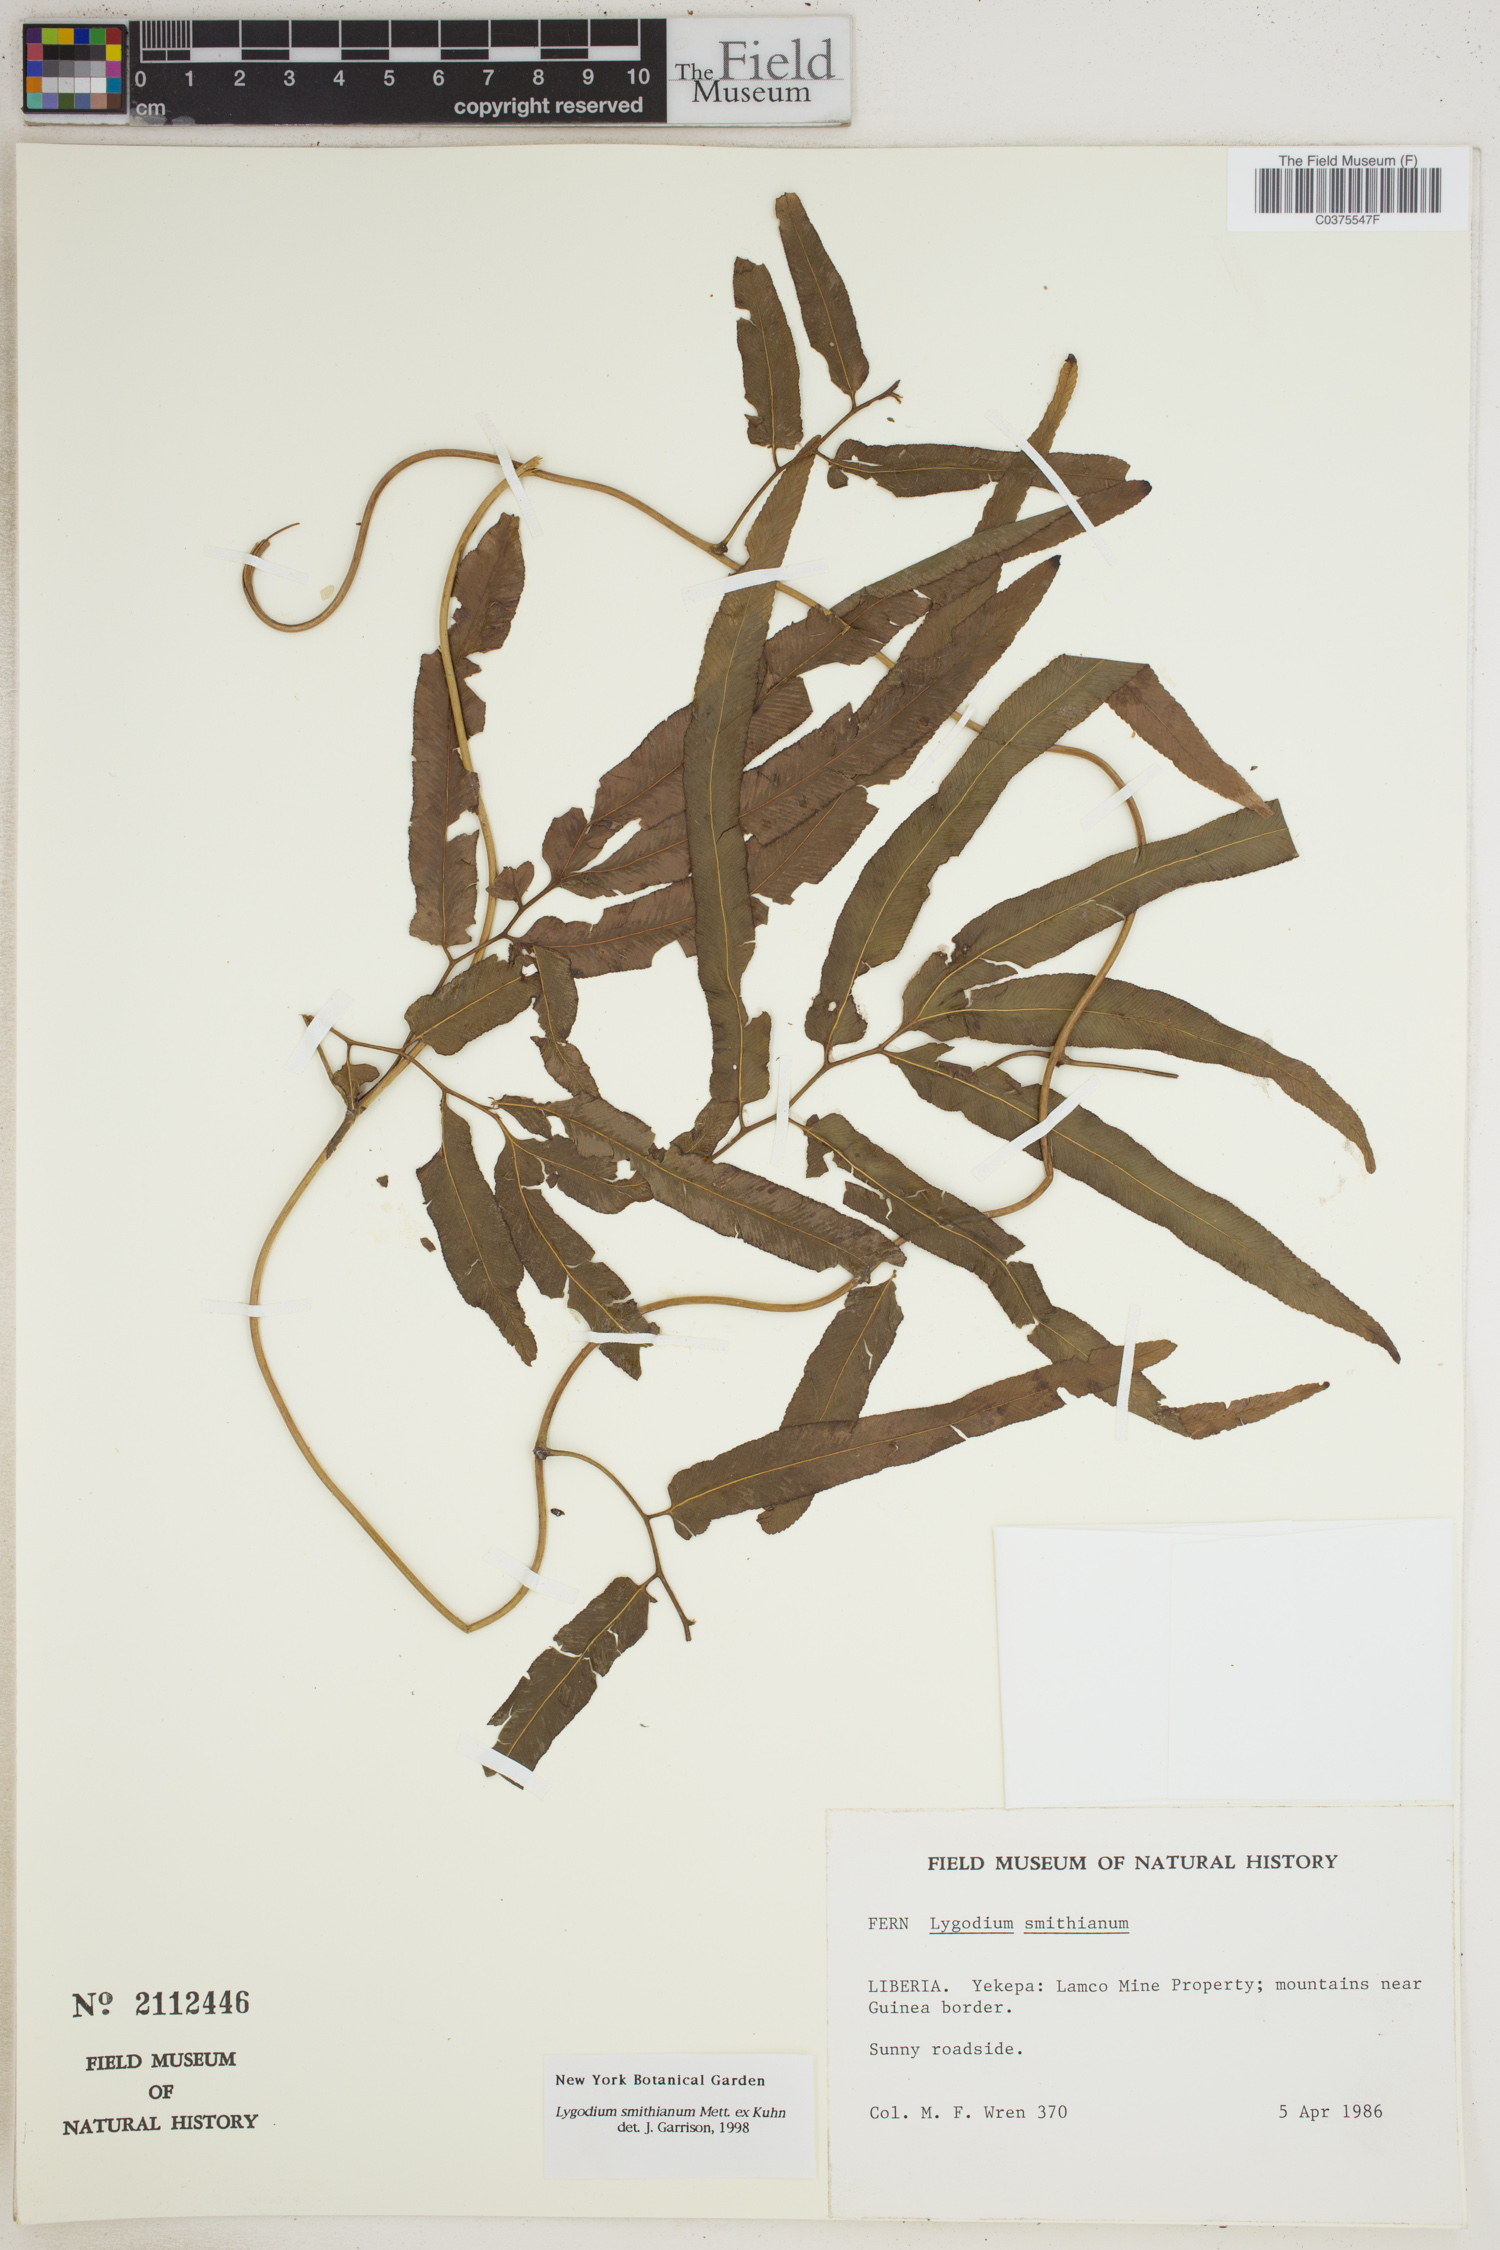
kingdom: Plantae
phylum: Tracheophyta
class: Polypodiopsida
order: Schizaeales
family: Lygodiaceae
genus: Lygodium
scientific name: Lygodium smithianum
